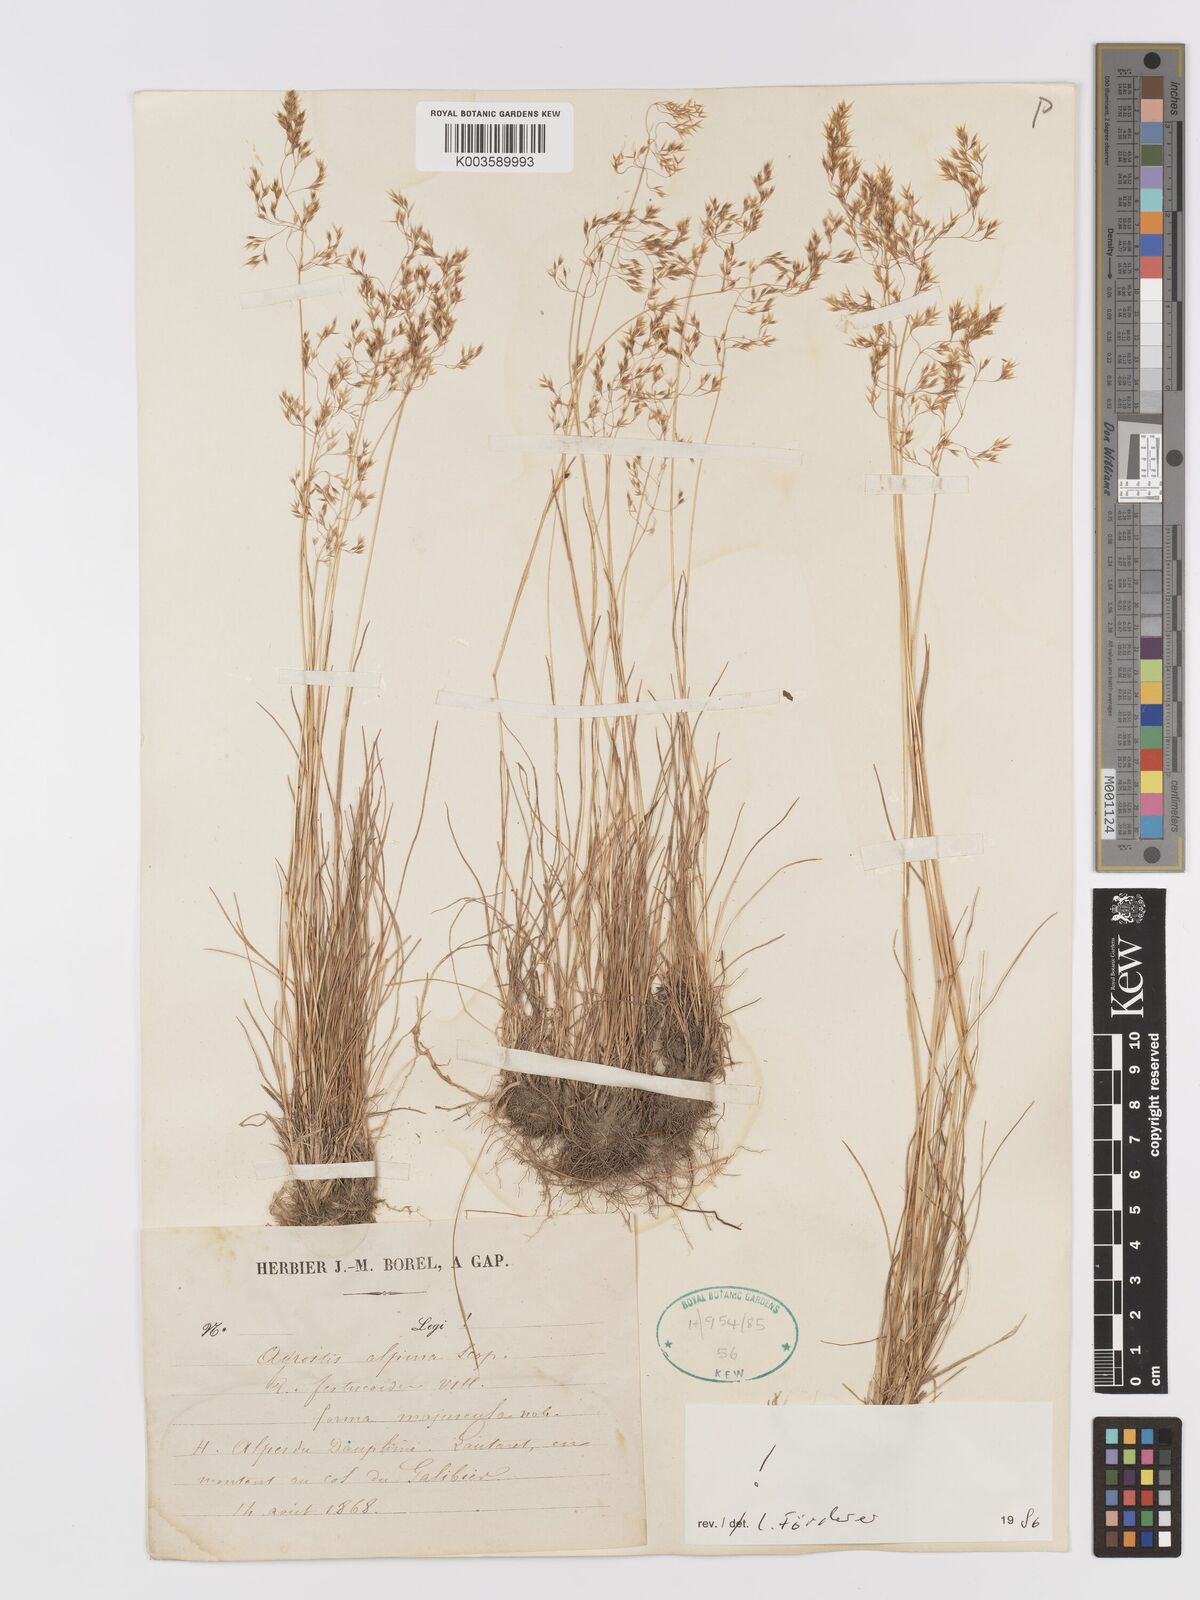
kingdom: Plantae
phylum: Tracheophyta
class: Liliopsida
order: Poales
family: Poaceae
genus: Alpagrostis
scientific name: Alpagrostis alpina
